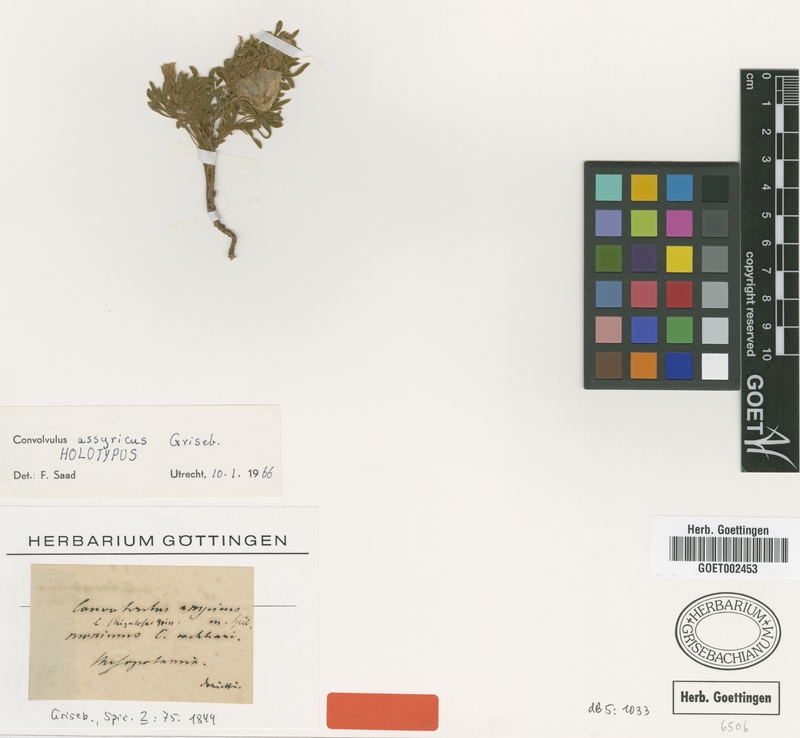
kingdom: Plantae
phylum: Tracheophyta
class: Magnoliopsida
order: Solanales
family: Convolvulaceae
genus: Convolvulus
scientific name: Convolvulus assyricus
